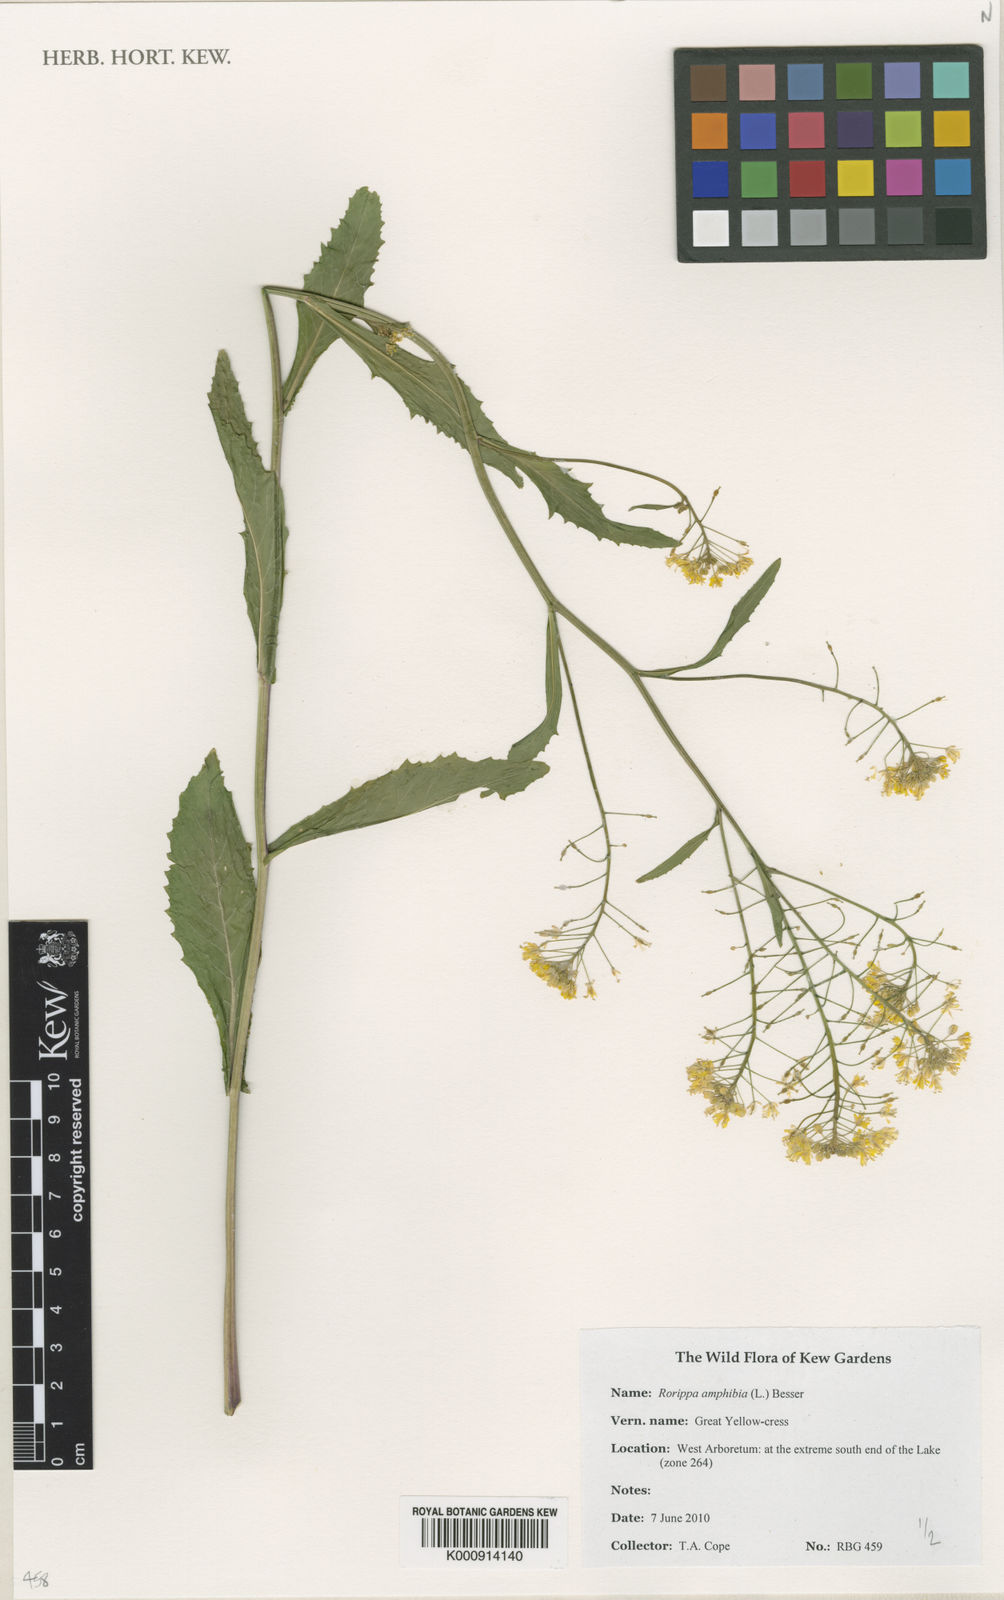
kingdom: Plantae
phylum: Tracheophyta
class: Magnoliopsida
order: Brassicales
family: Brassicaceae
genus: Rorippa
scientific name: Rorippa amphibia
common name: Great yellow-cress
